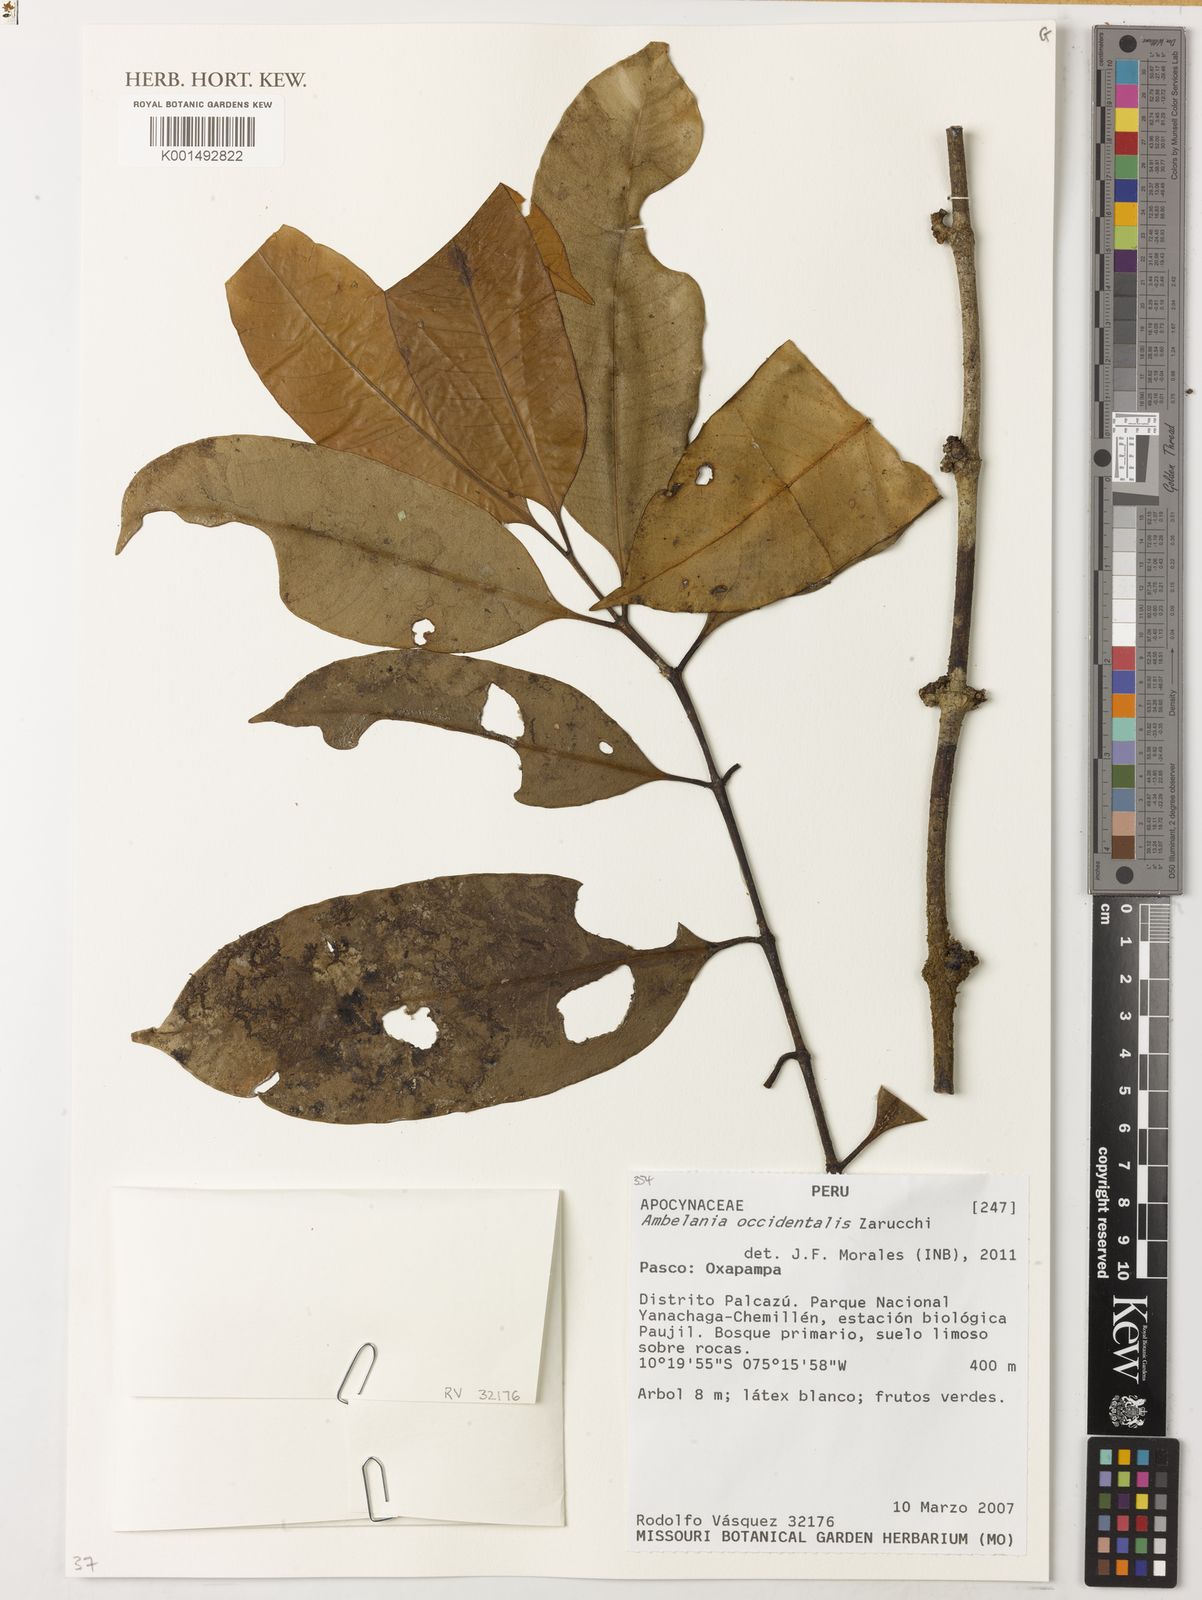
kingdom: Plantae
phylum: Tracheophyta
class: Magnoliopsida
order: Gentianales
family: Apocynaceae
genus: Ambelania
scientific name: Ambelania occidentalis
